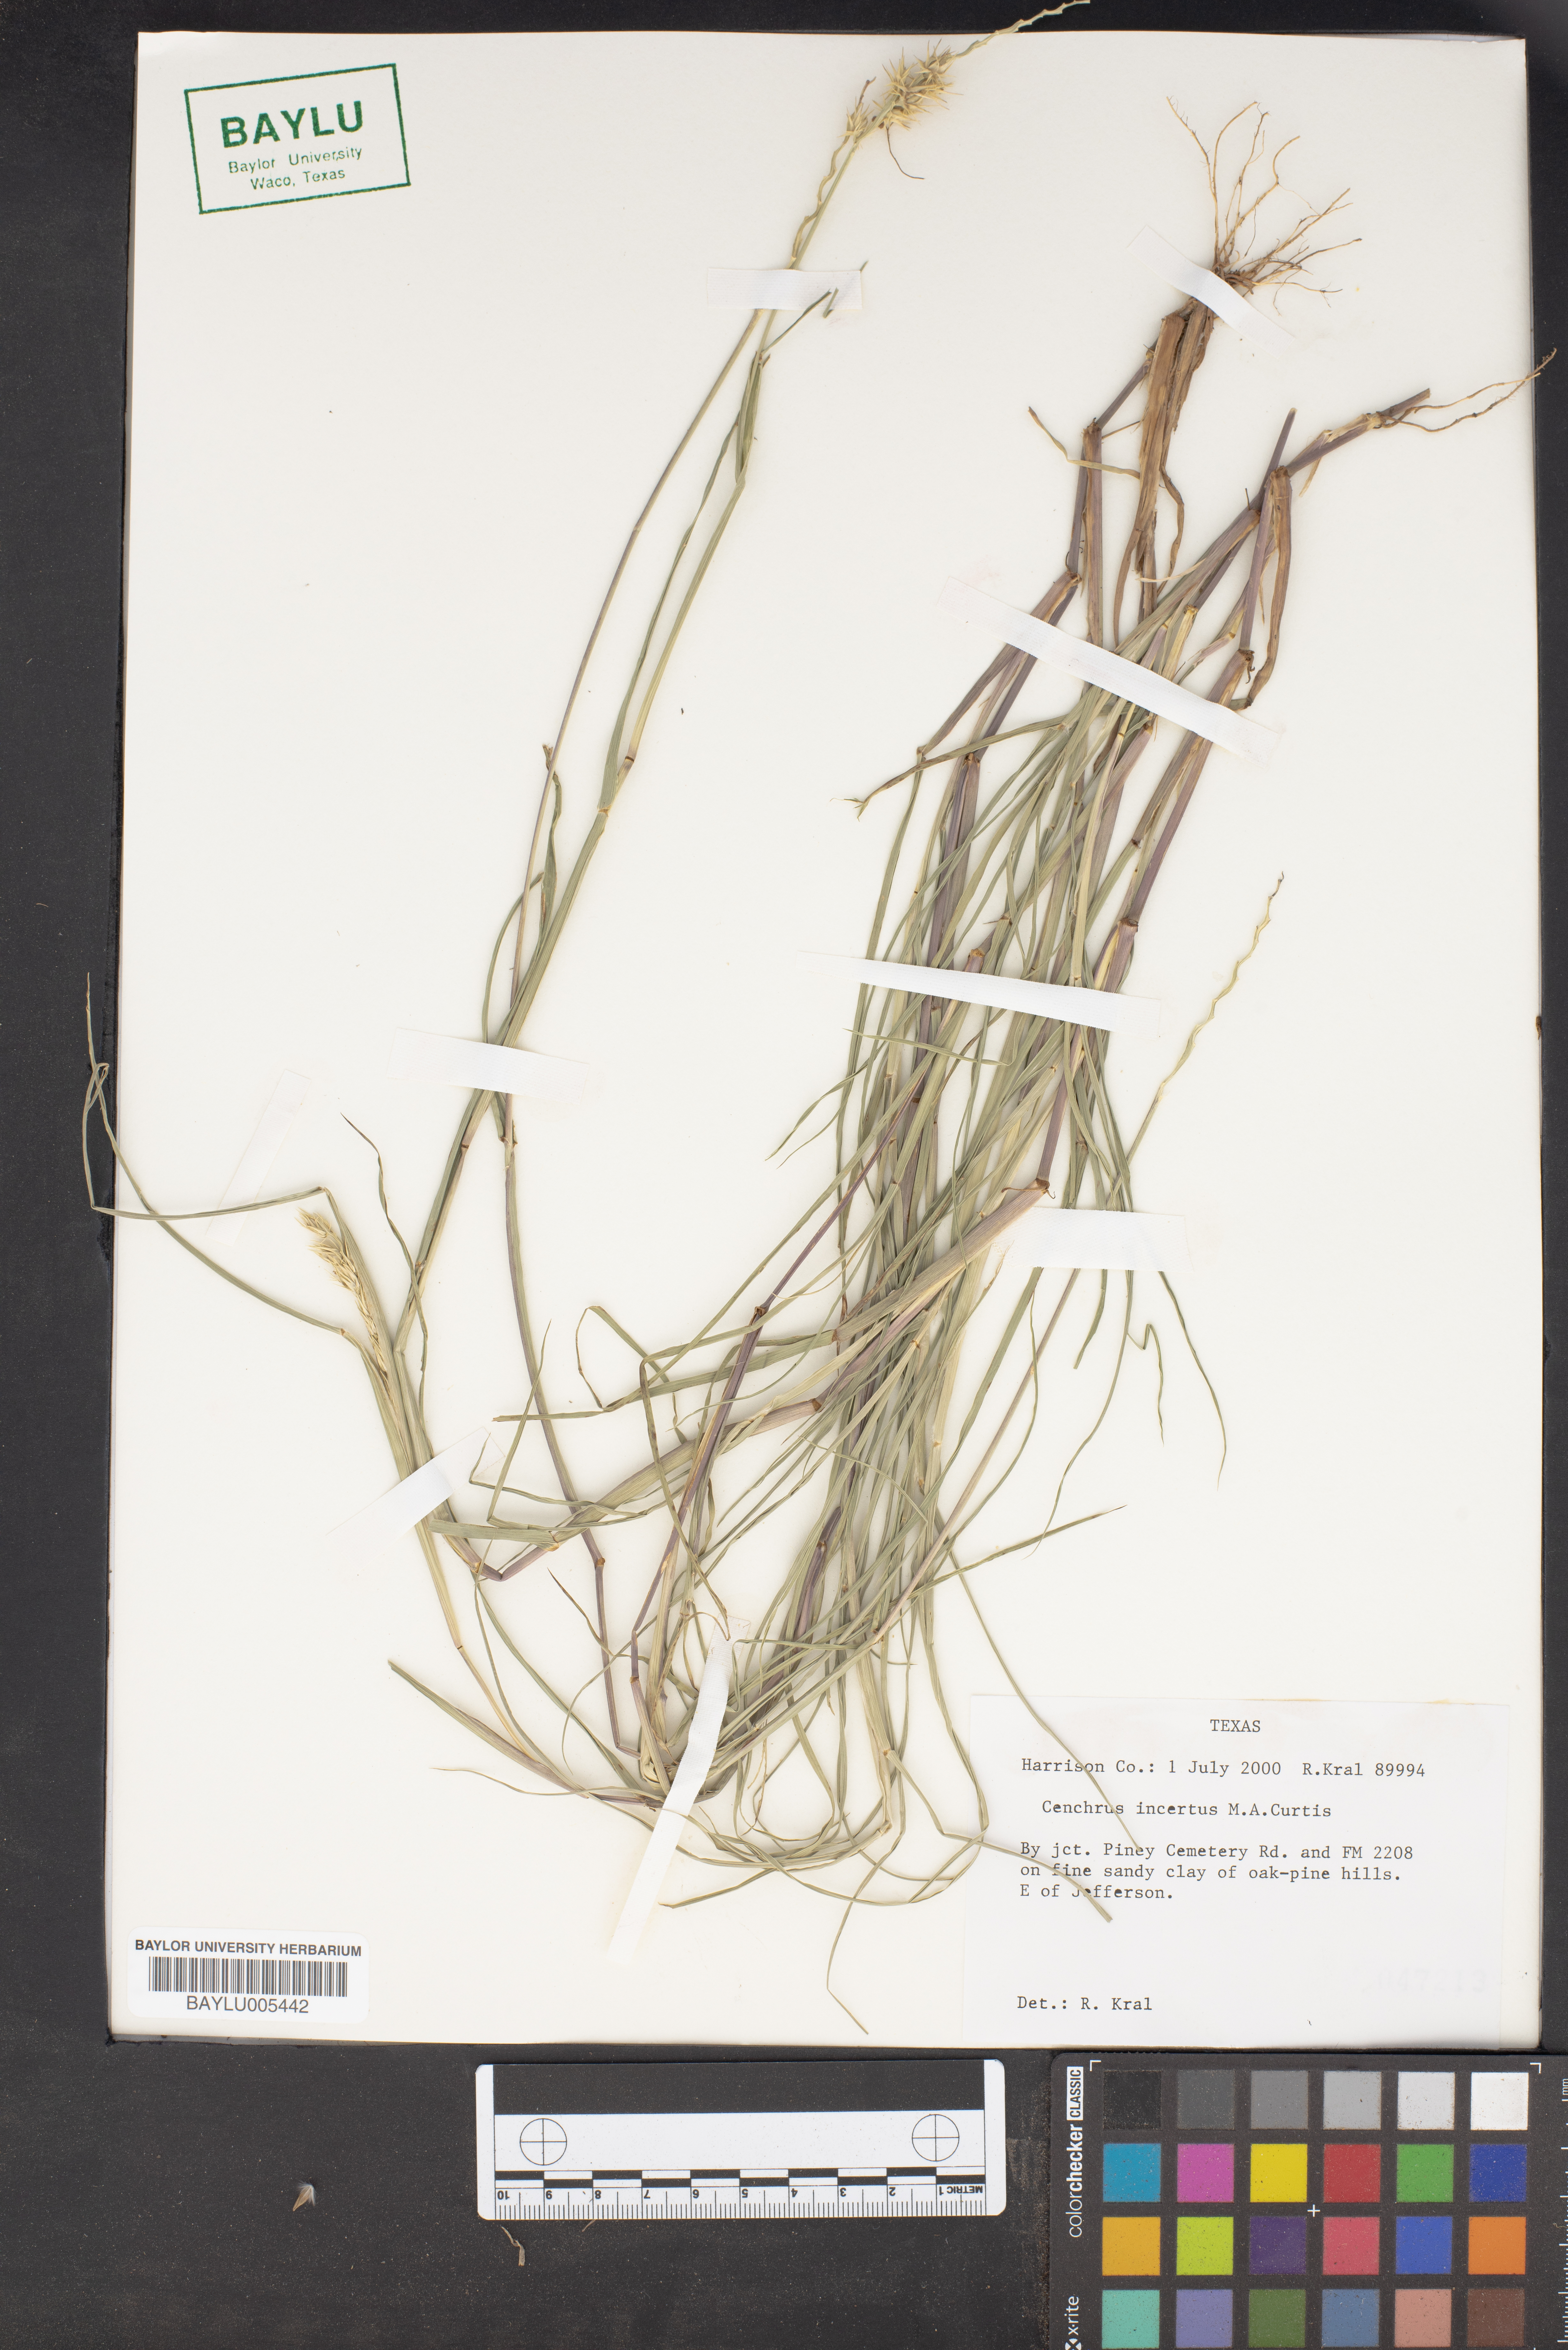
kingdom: Plantae
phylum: Tracheophyta
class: Liliopsida
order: Poales
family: Poaceae
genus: Cenchrus
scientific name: Cenchrus spinifex
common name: Coast sandbur
